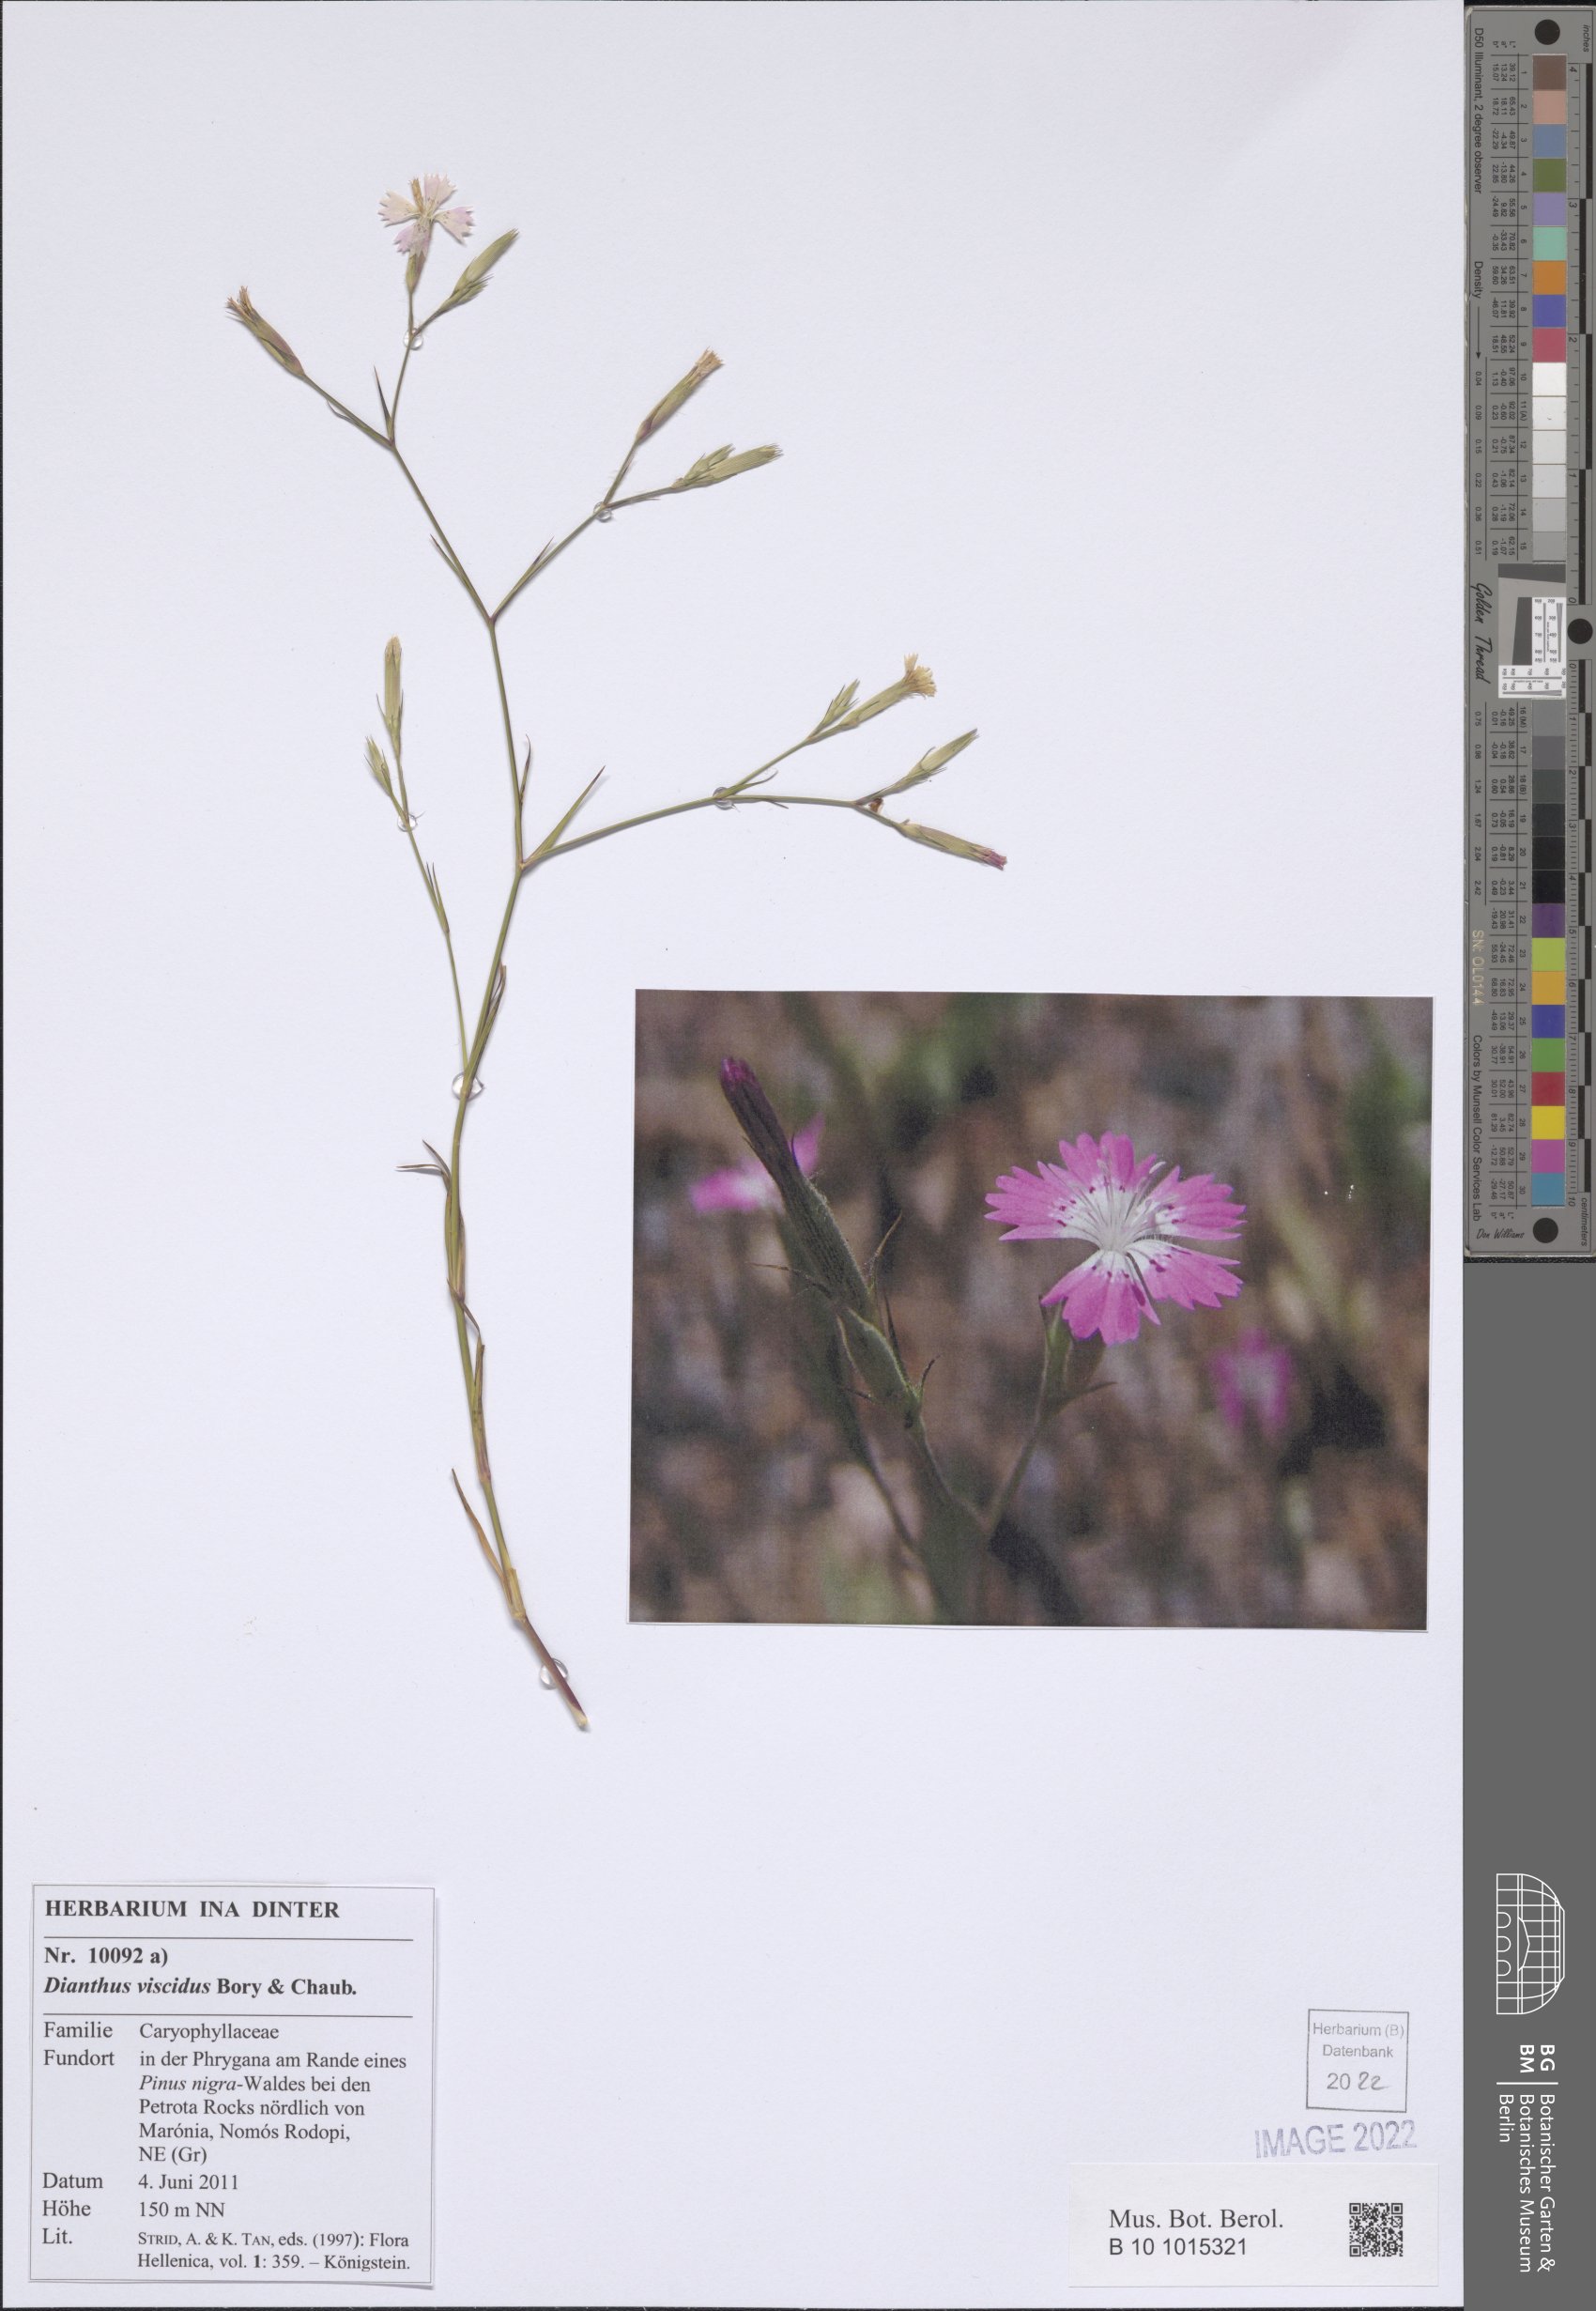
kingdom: Plantae
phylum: Tracheophyta
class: Magnoliopsida
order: Caryophyllales
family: Caryophyllaceae
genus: Dianthus
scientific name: Dianthus viscidus
